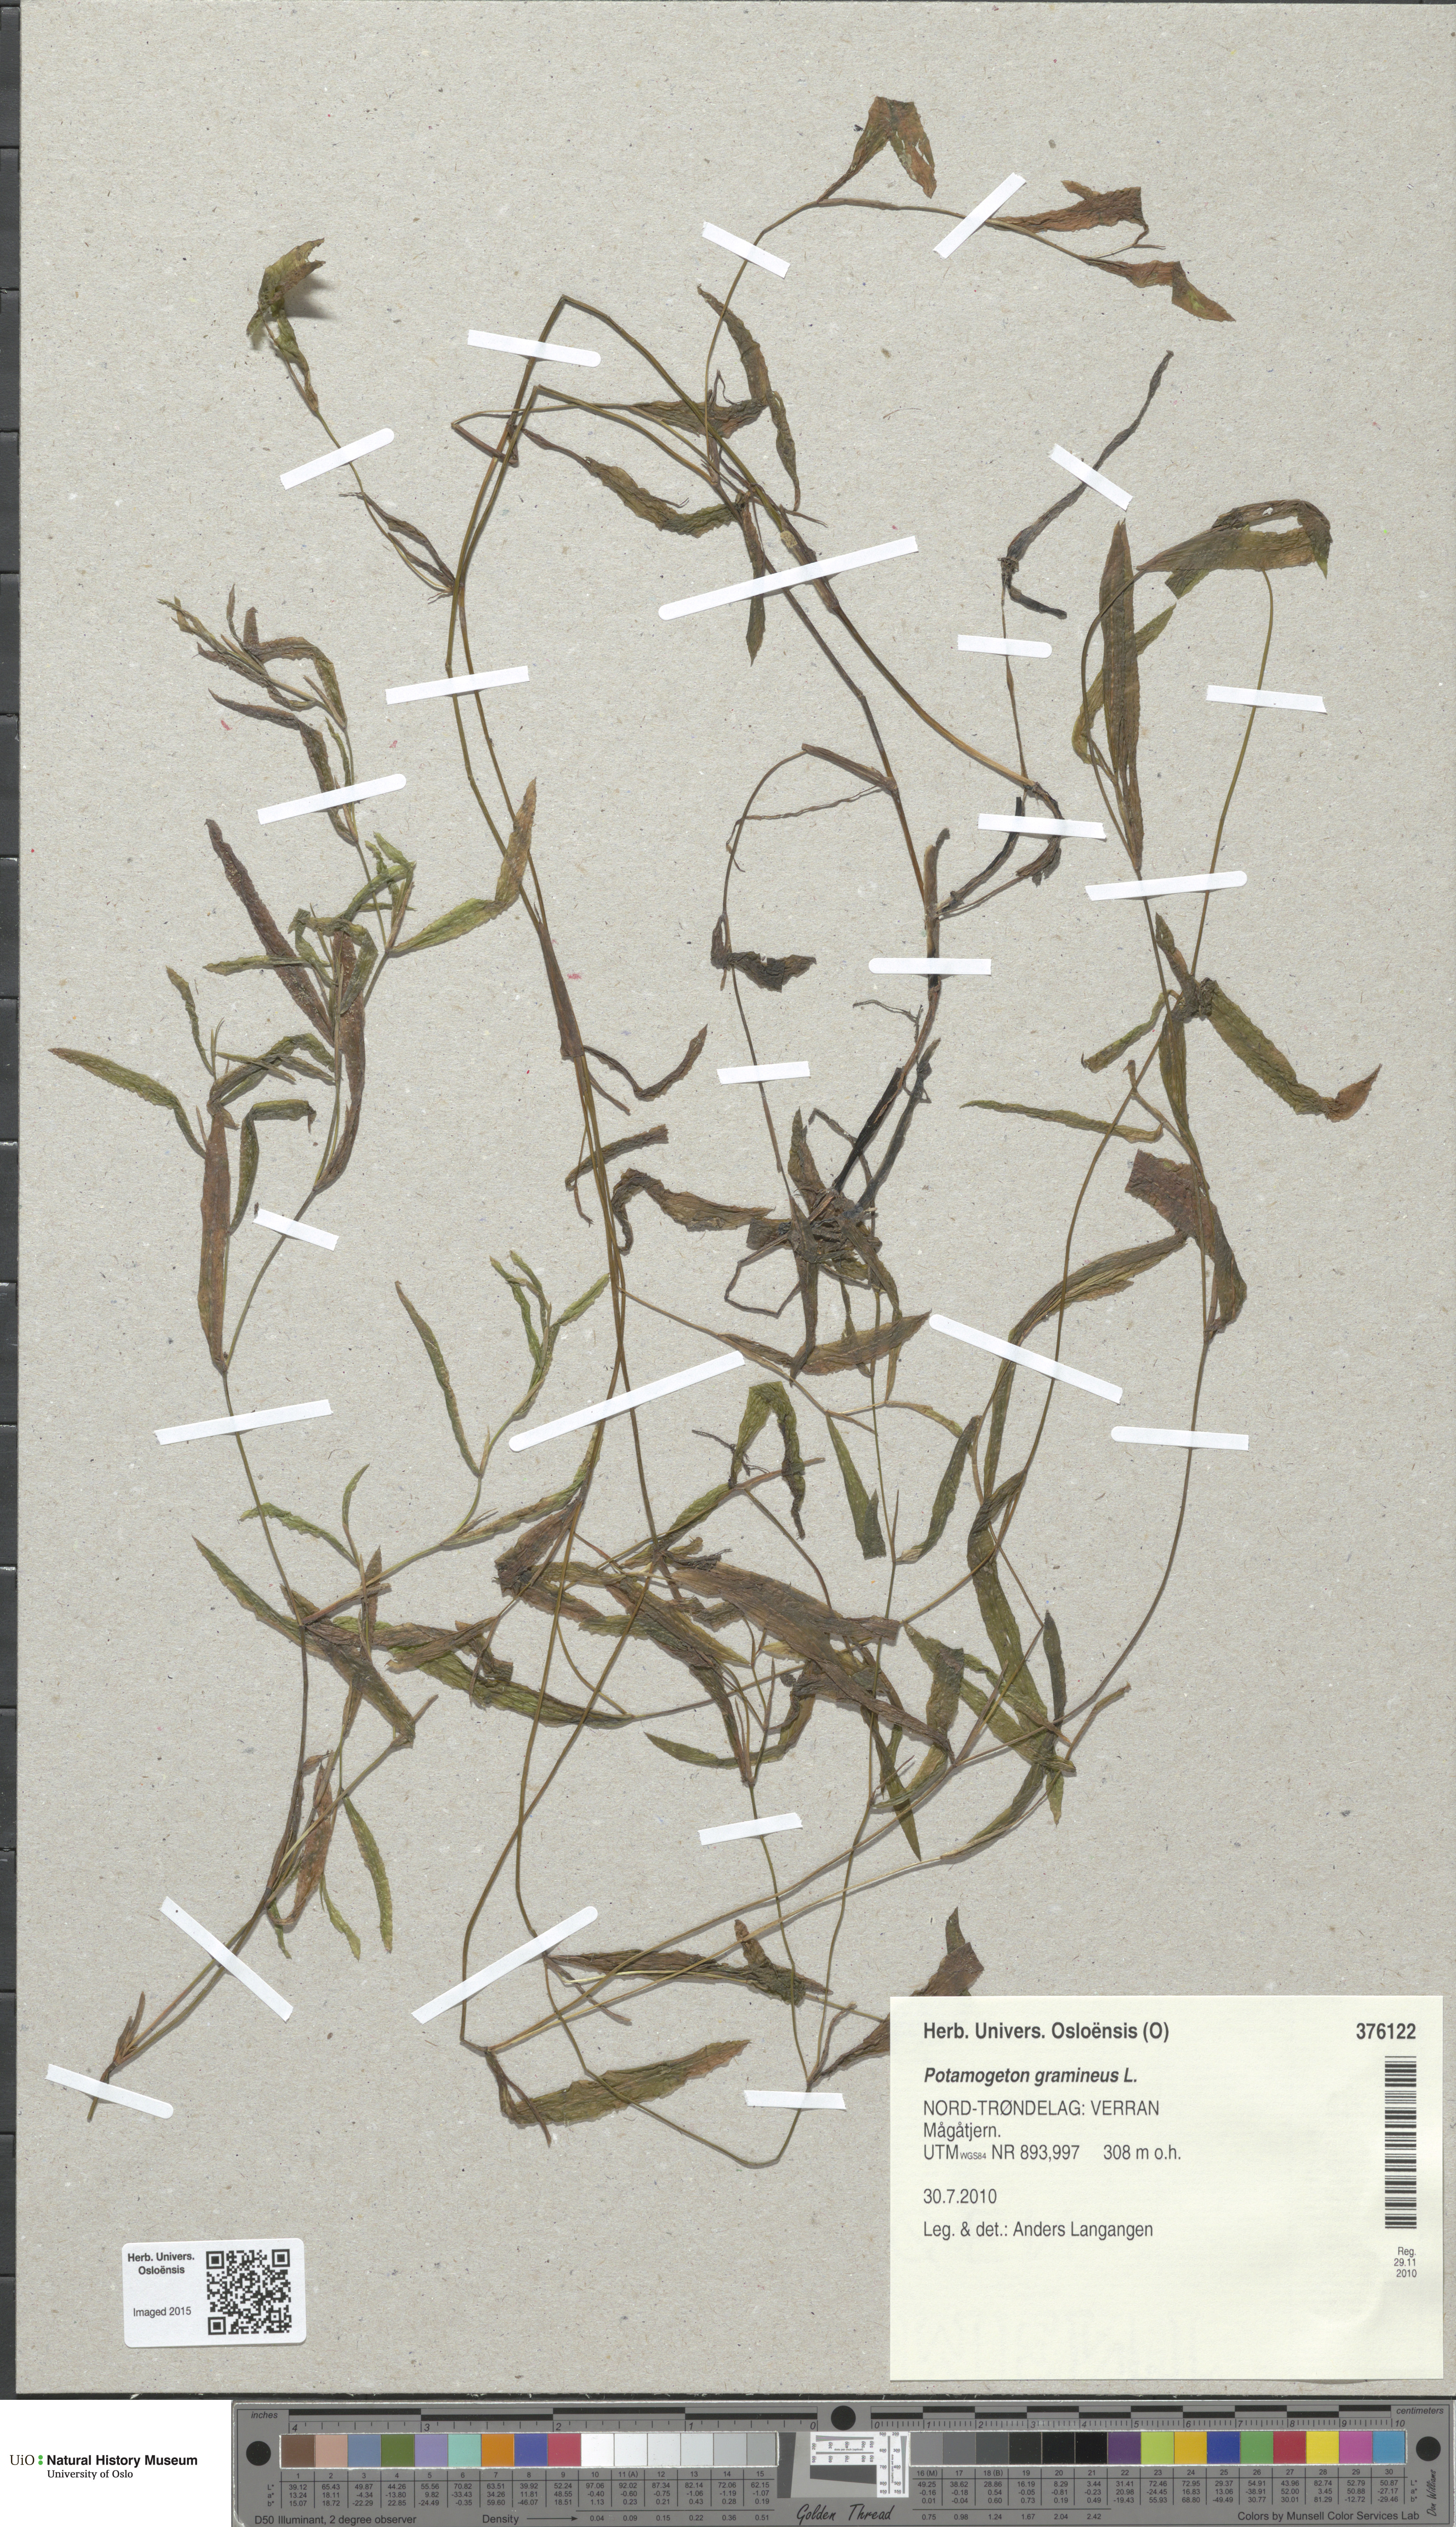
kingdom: Plantae
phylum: Tracheophyta
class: Liliopsida
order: Alismatales
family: Potamogetonaceae
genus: Potamogeton
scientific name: Potamogeton gramineus
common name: Various-leaved pondweed
